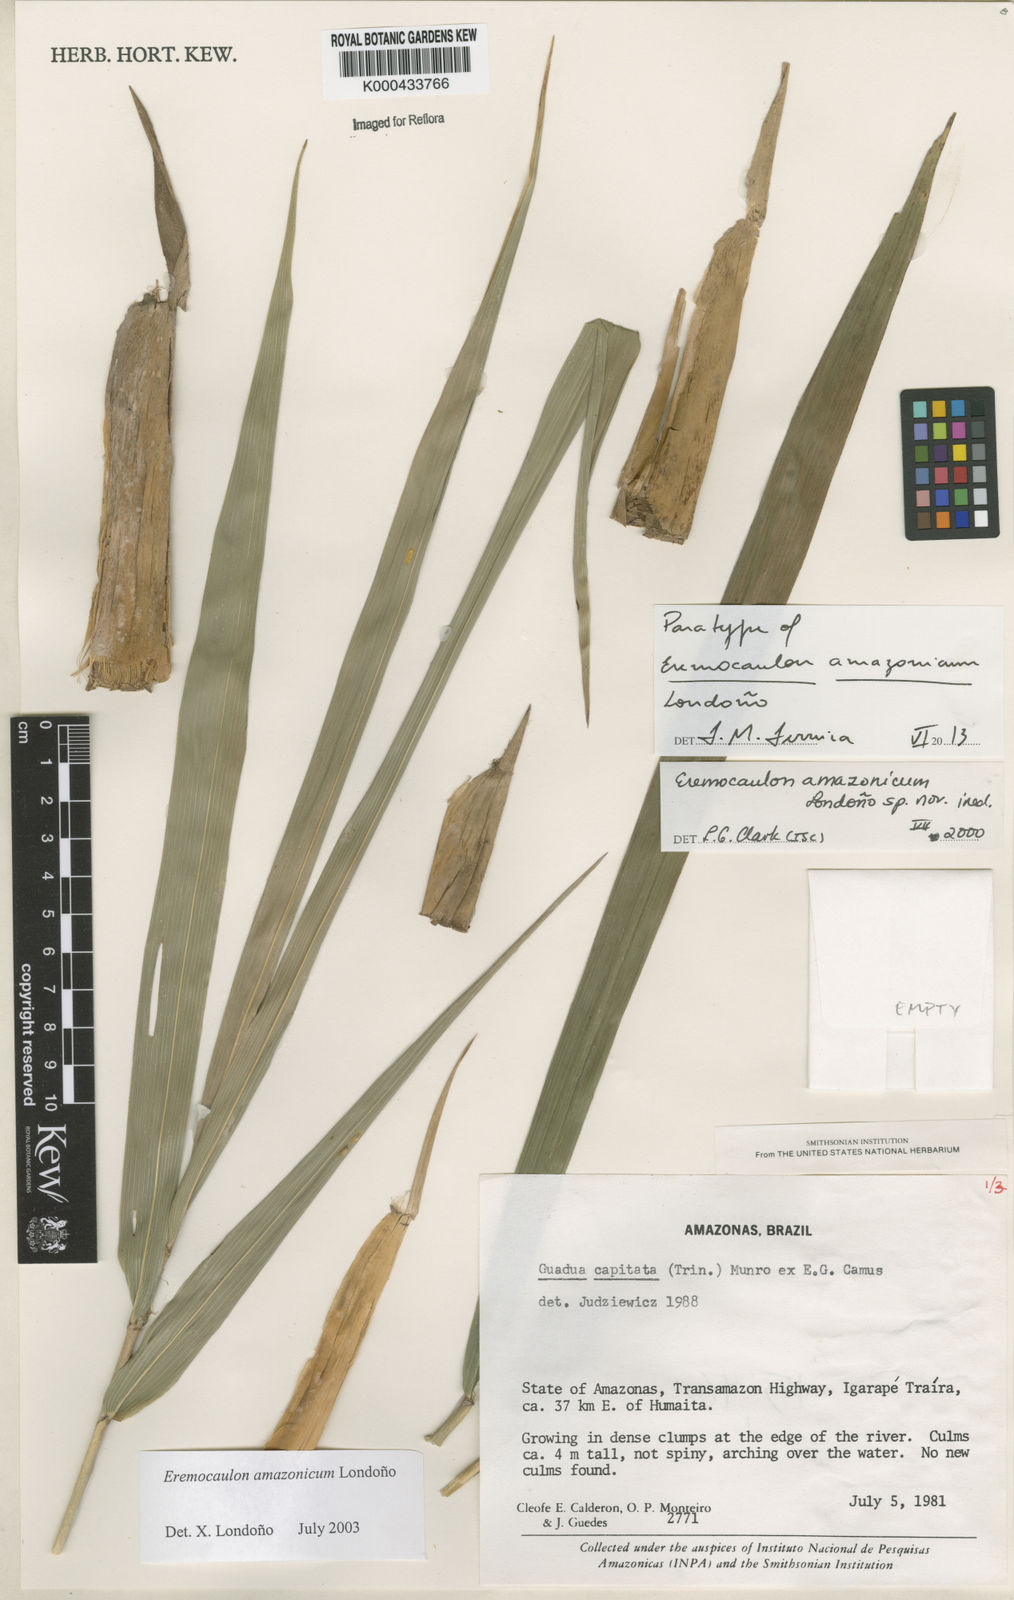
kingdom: Plantae
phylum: Tracheophyta
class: Liliopsida
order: Poales
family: Poaceae
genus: Eremocaulon
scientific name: Eremocaulon
